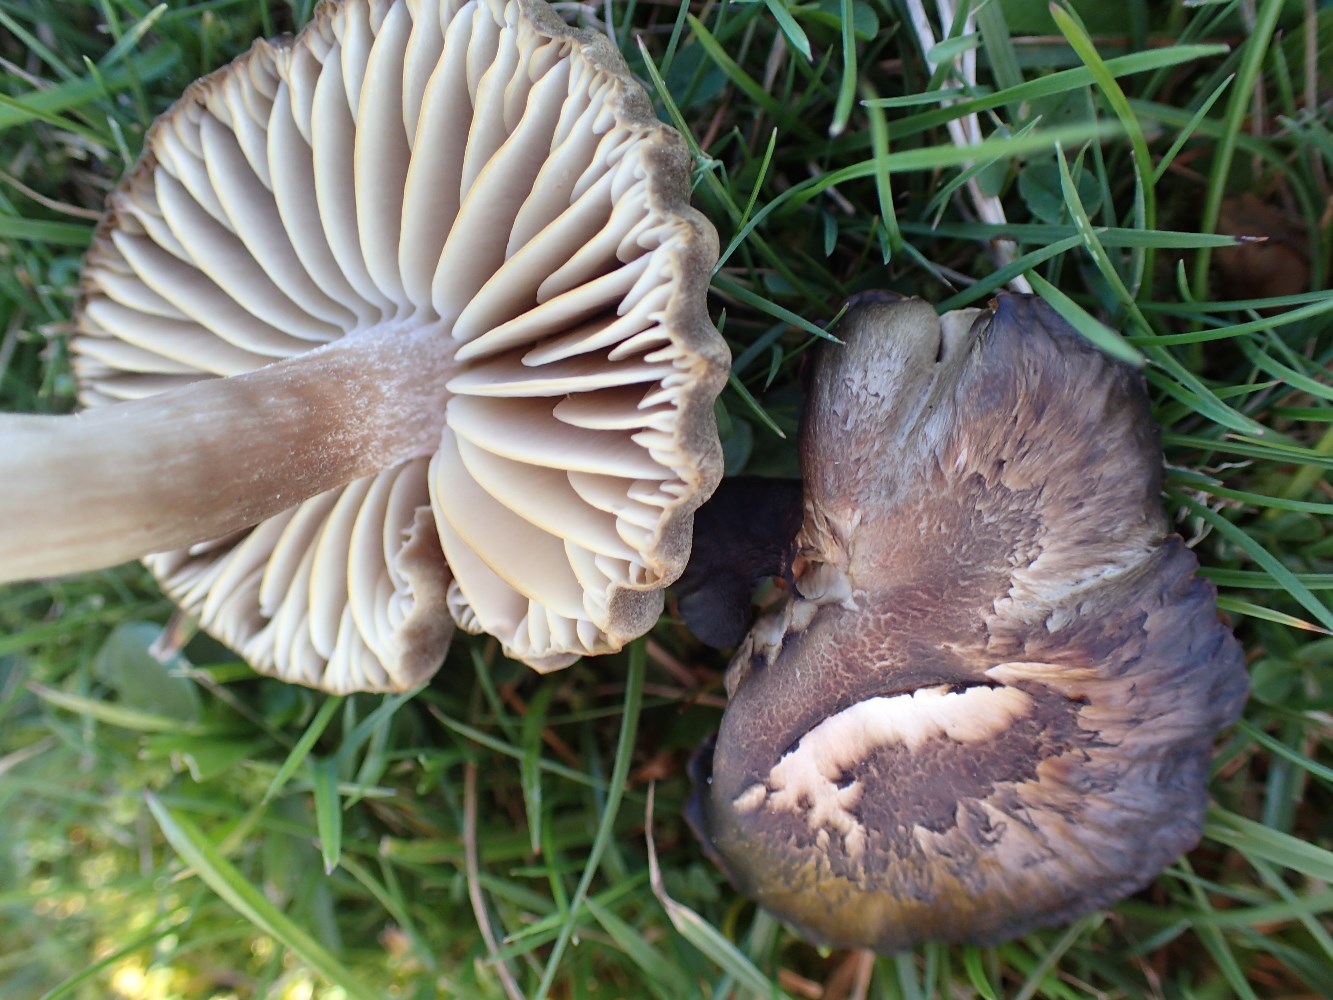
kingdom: Fungi
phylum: Basidiomycota
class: Agaricomycetes
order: Agaricales
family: Hygrophoraceae
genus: Neohygrocybe
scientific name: Neohygrocybe nitrata
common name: stinkende vokshat
